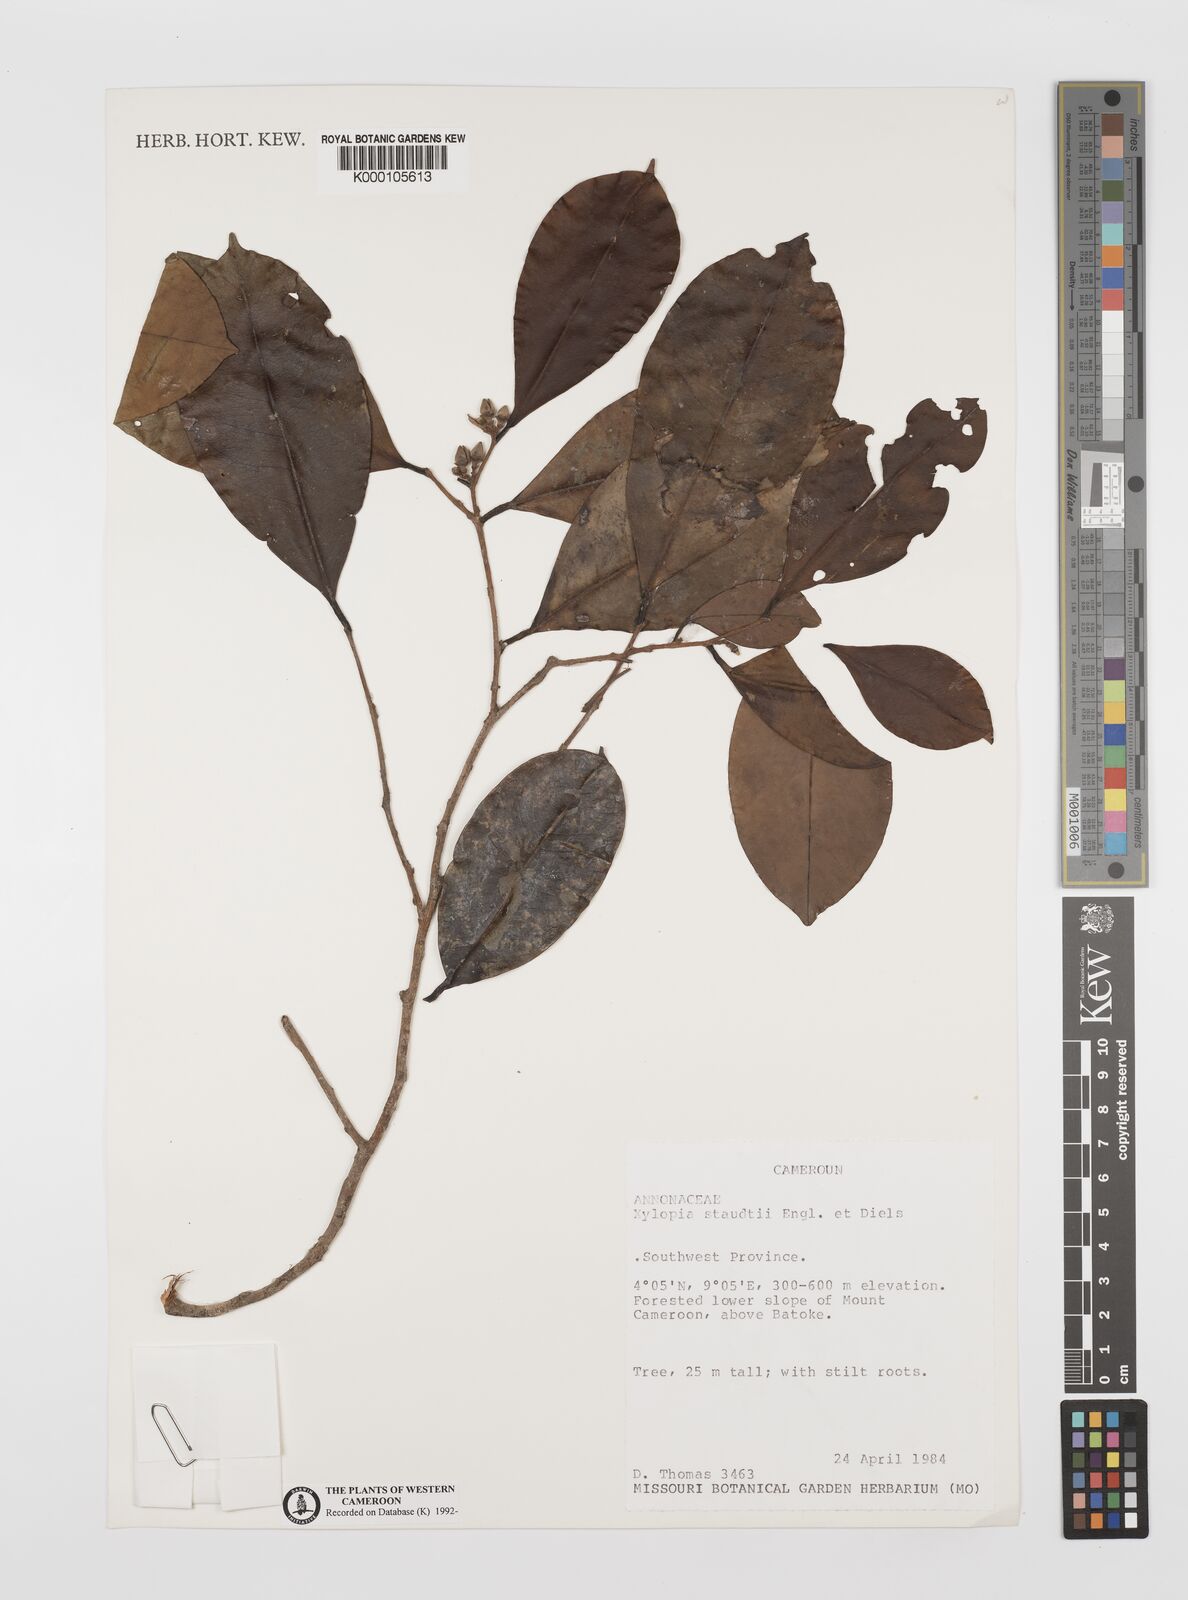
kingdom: Plantae
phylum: Tracheophyta
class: Magnoliopsida
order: Magnoliales
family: Annonaceae
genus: Xylopia
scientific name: Xylopia staudtii
